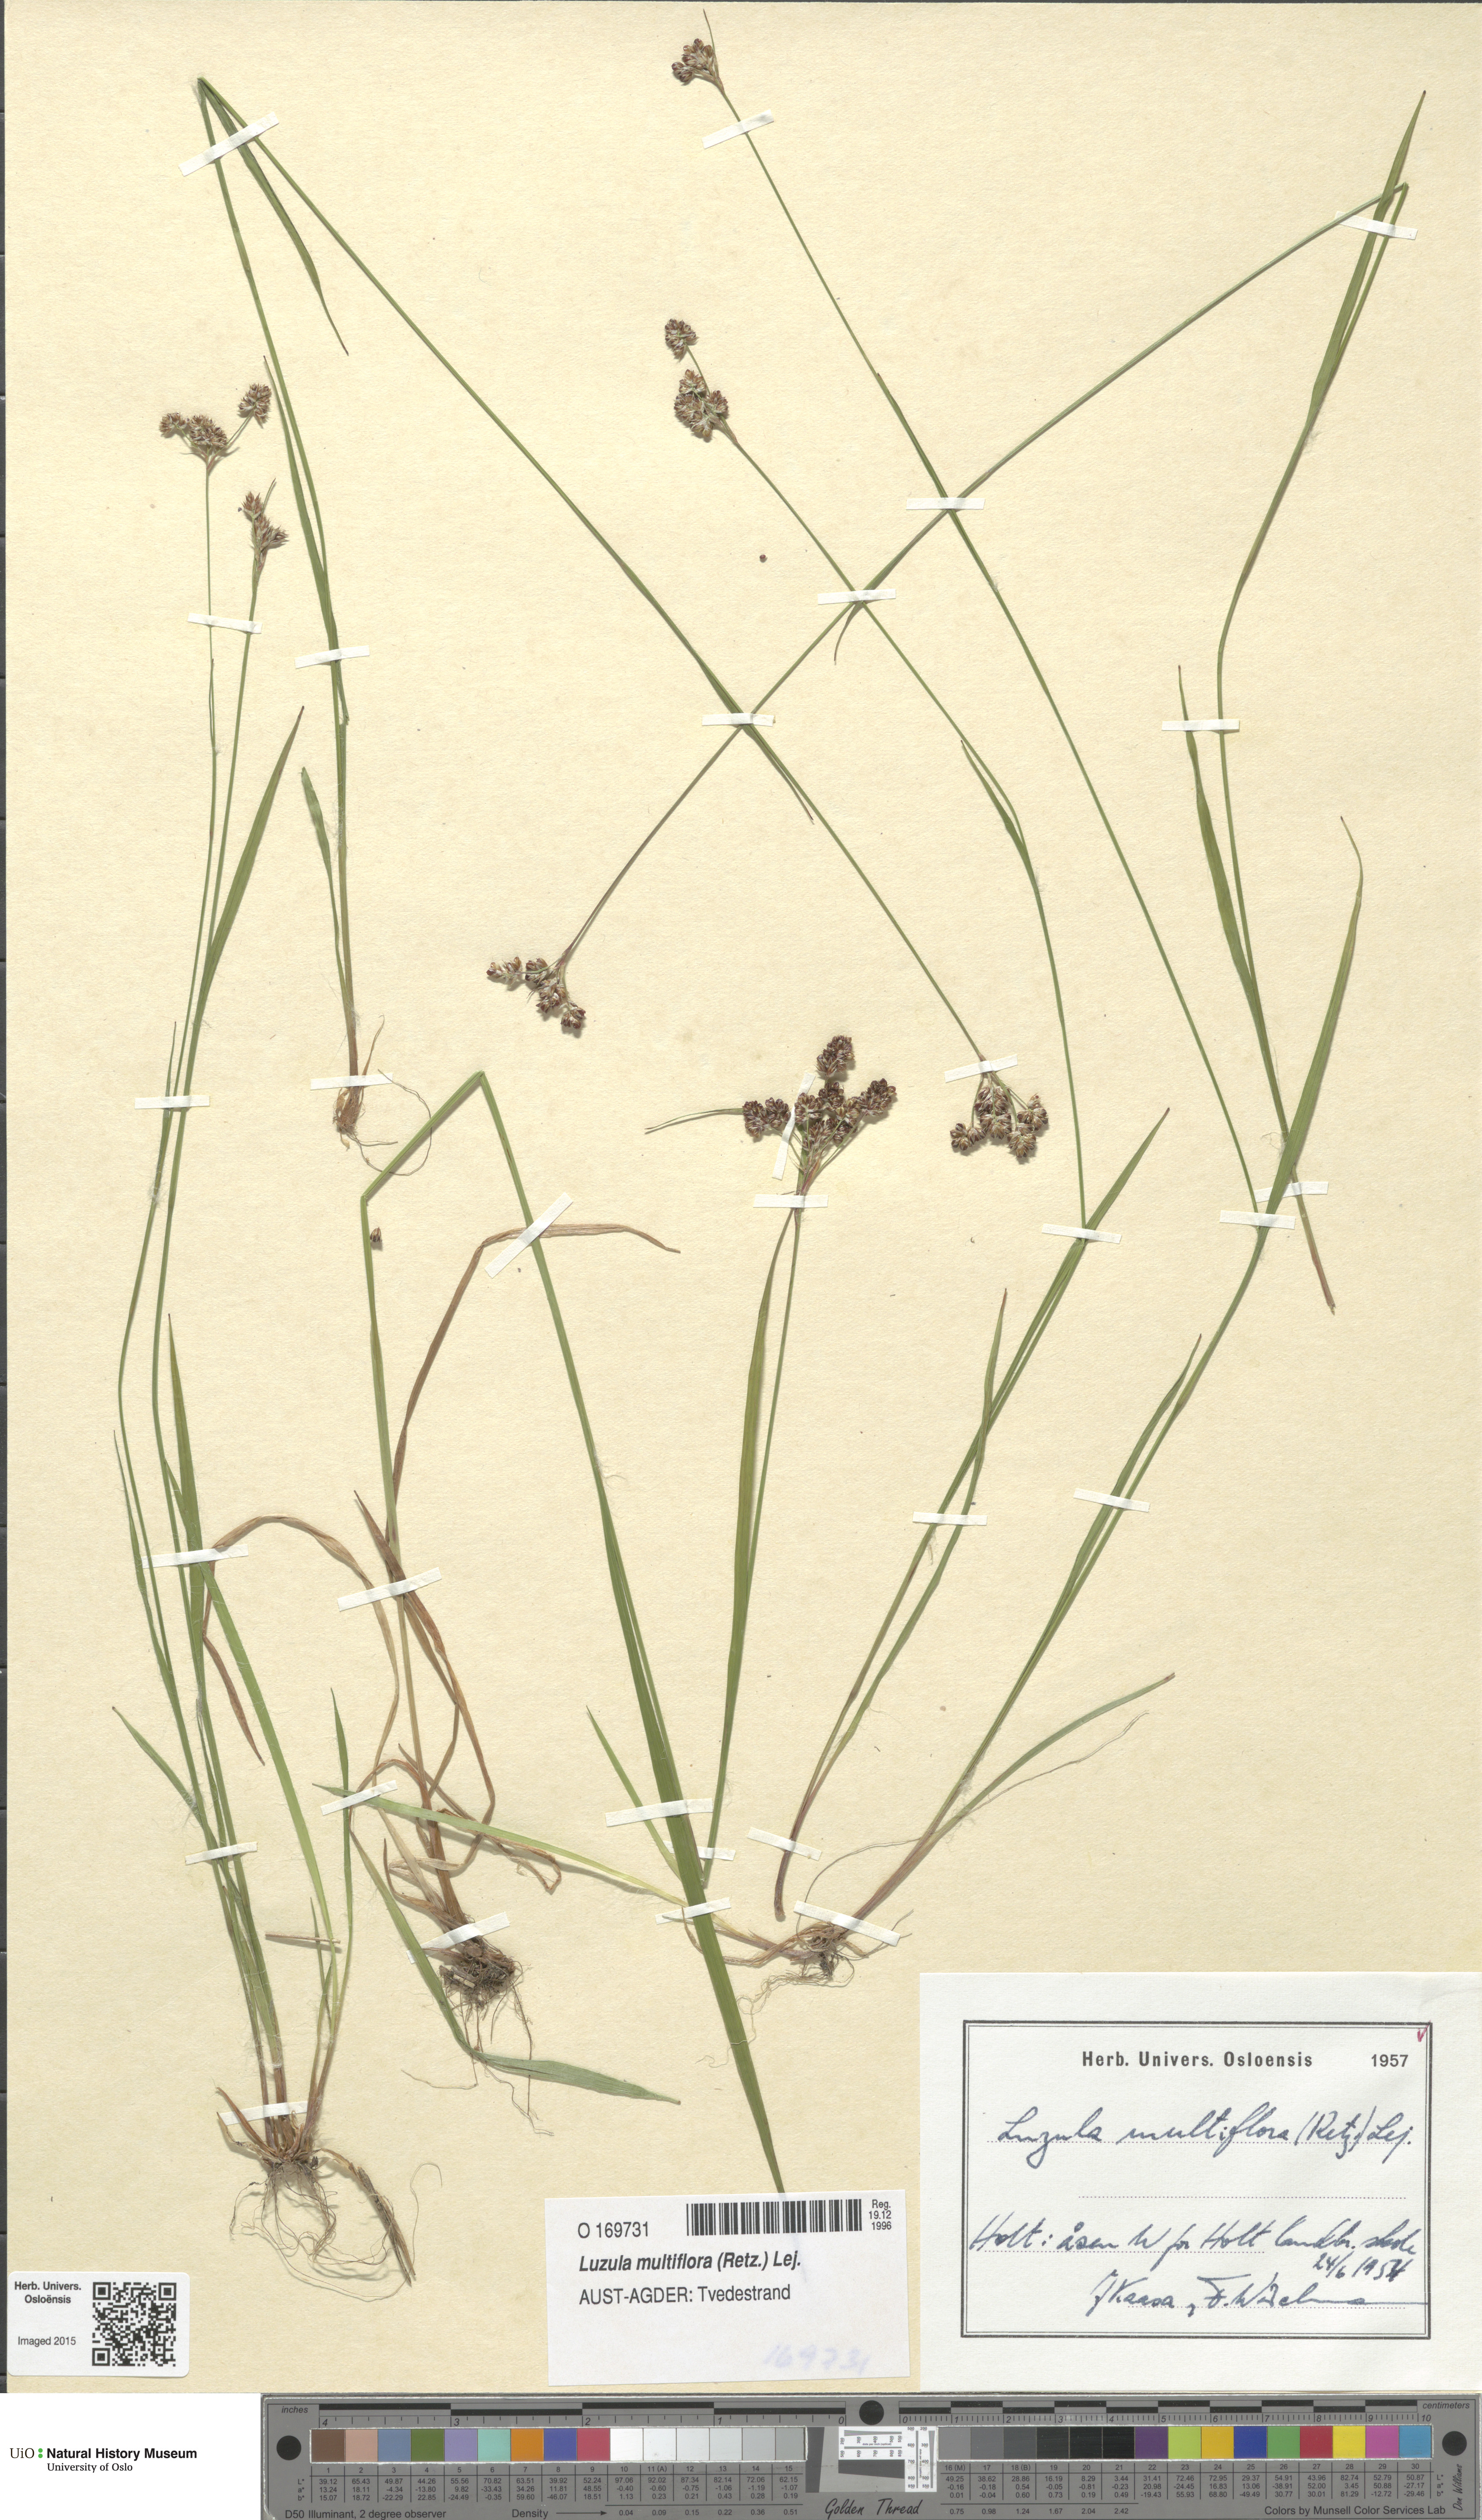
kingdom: Plantae
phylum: Tracheophyta
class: Liliopsida
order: Poales
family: Juncaceae
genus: Luzula
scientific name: Luzula multiflora
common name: Heath wood-rush
